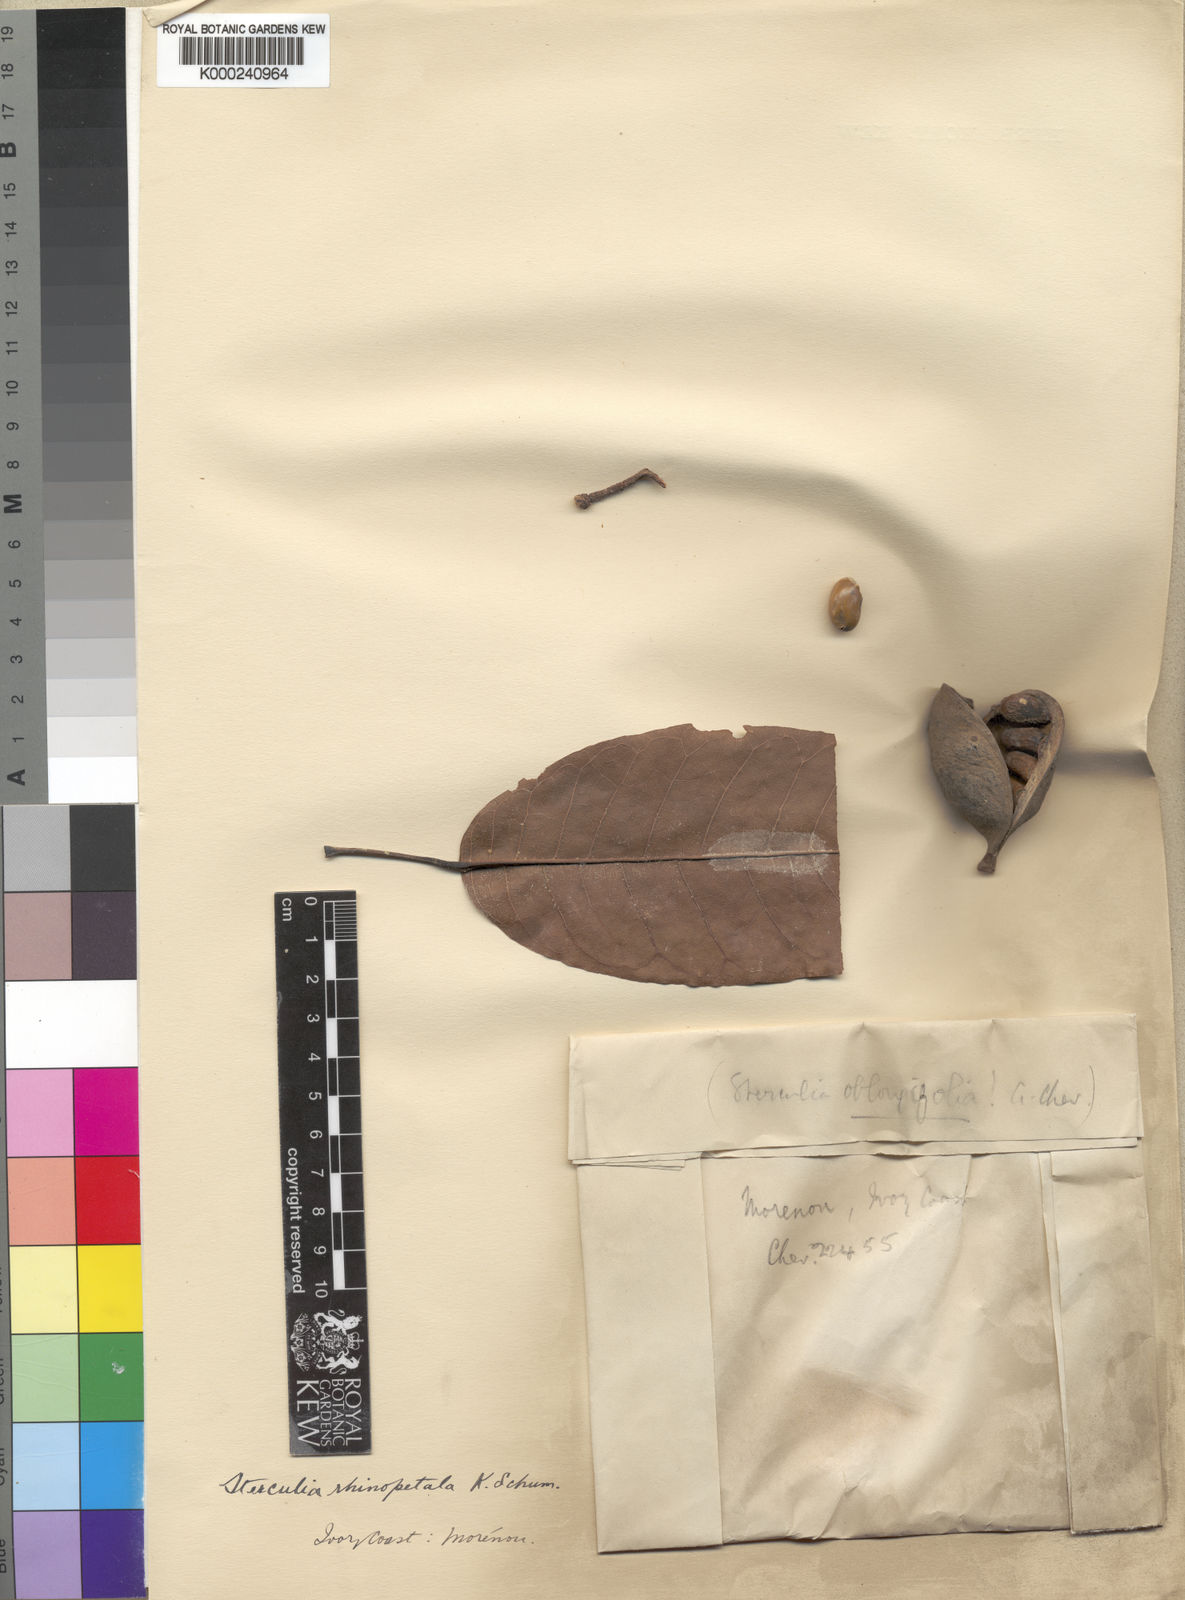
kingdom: Plantae
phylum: Tracheophyta
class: Magnoliopsida
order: Malvales
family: Malvaceae
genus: Sterculia
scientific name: Sterculia rhinopetala
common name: Brown sterculia
